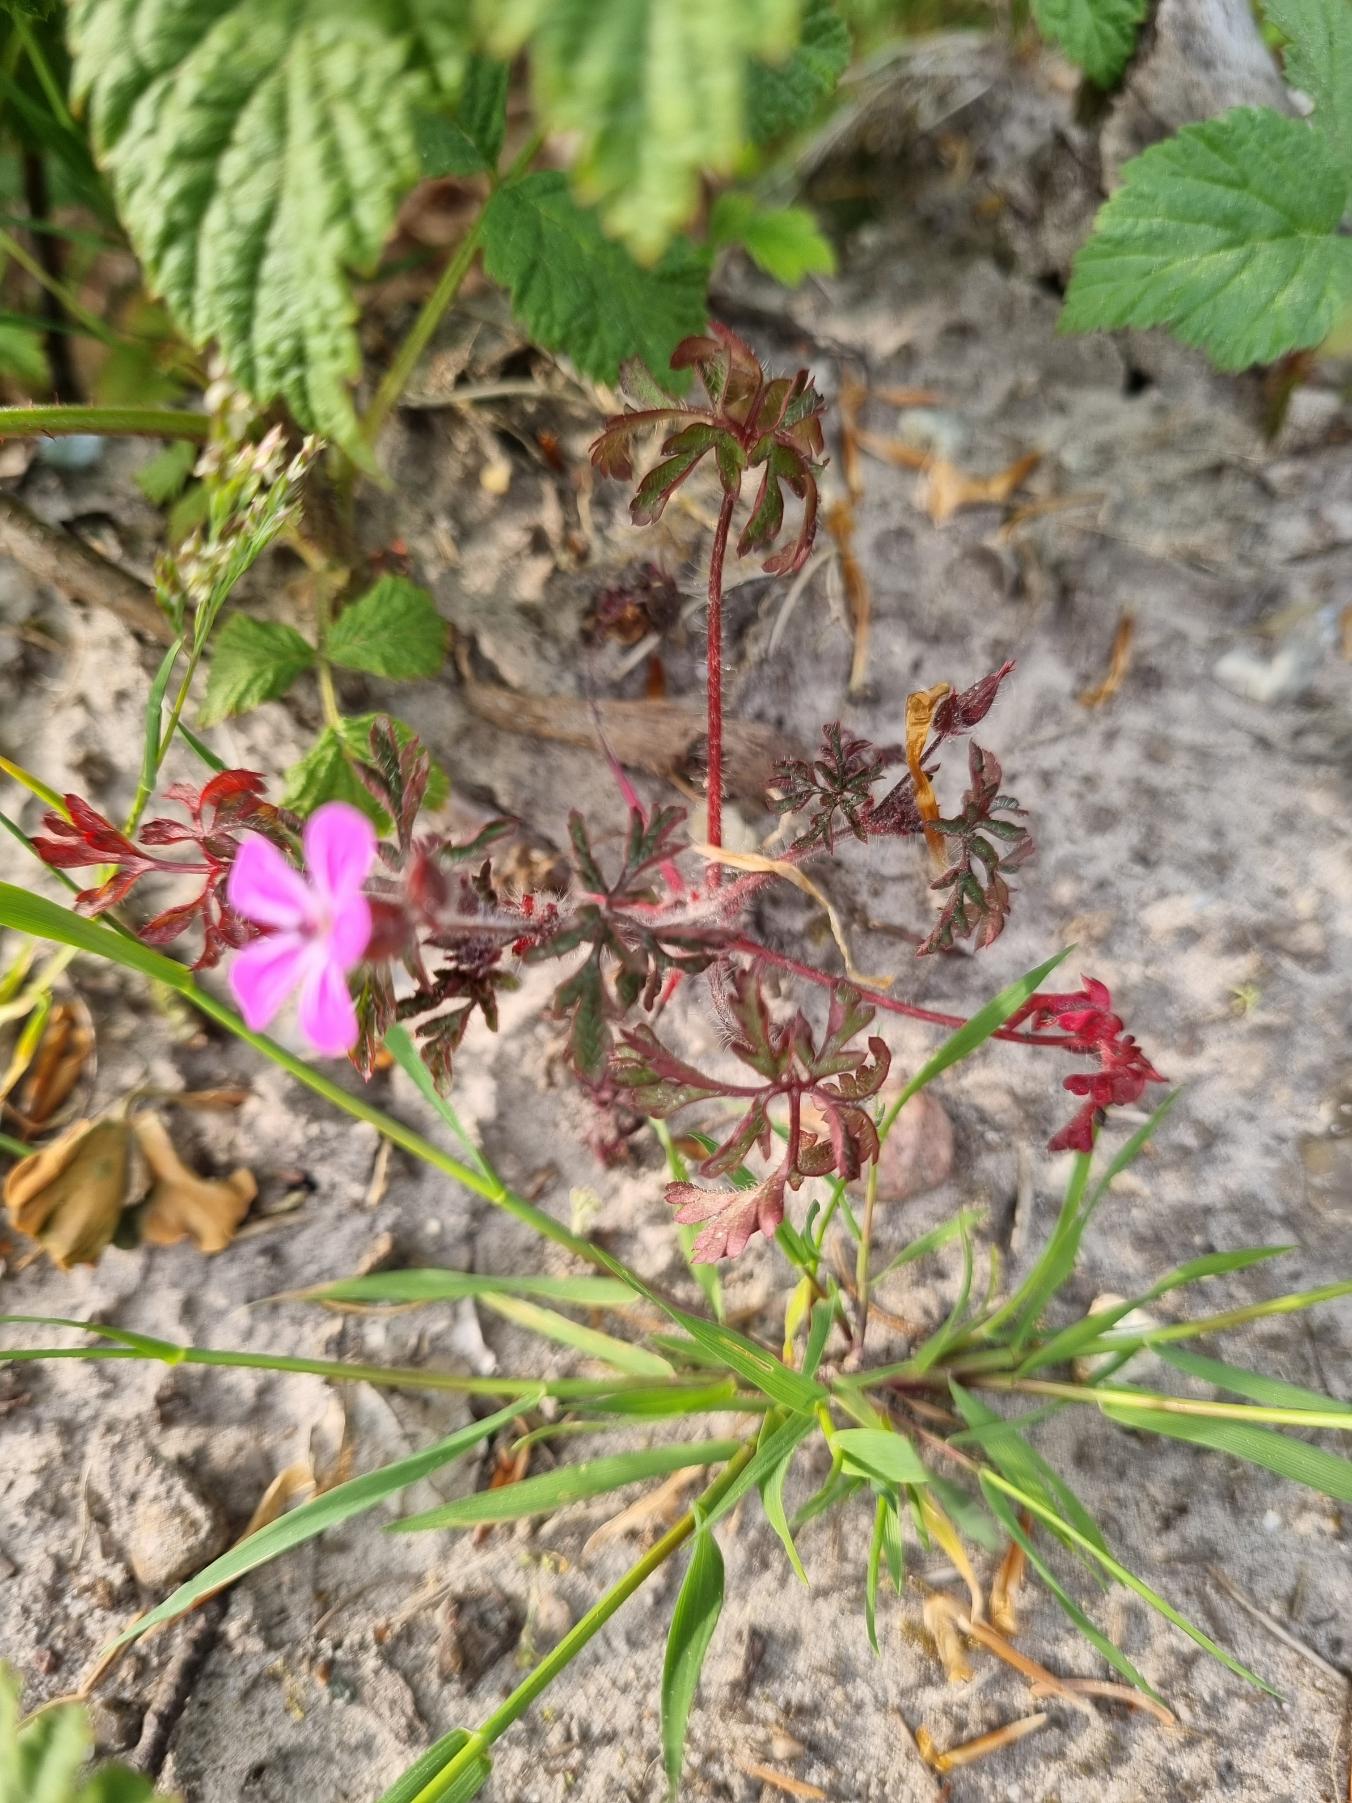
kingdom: Plantae
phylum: Tracheophyta
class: Magnoliopsida
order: Geraniales
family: Geraniaceae
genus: Geranium
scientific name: Geranium robertianum
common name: Stinkende storkenæb
